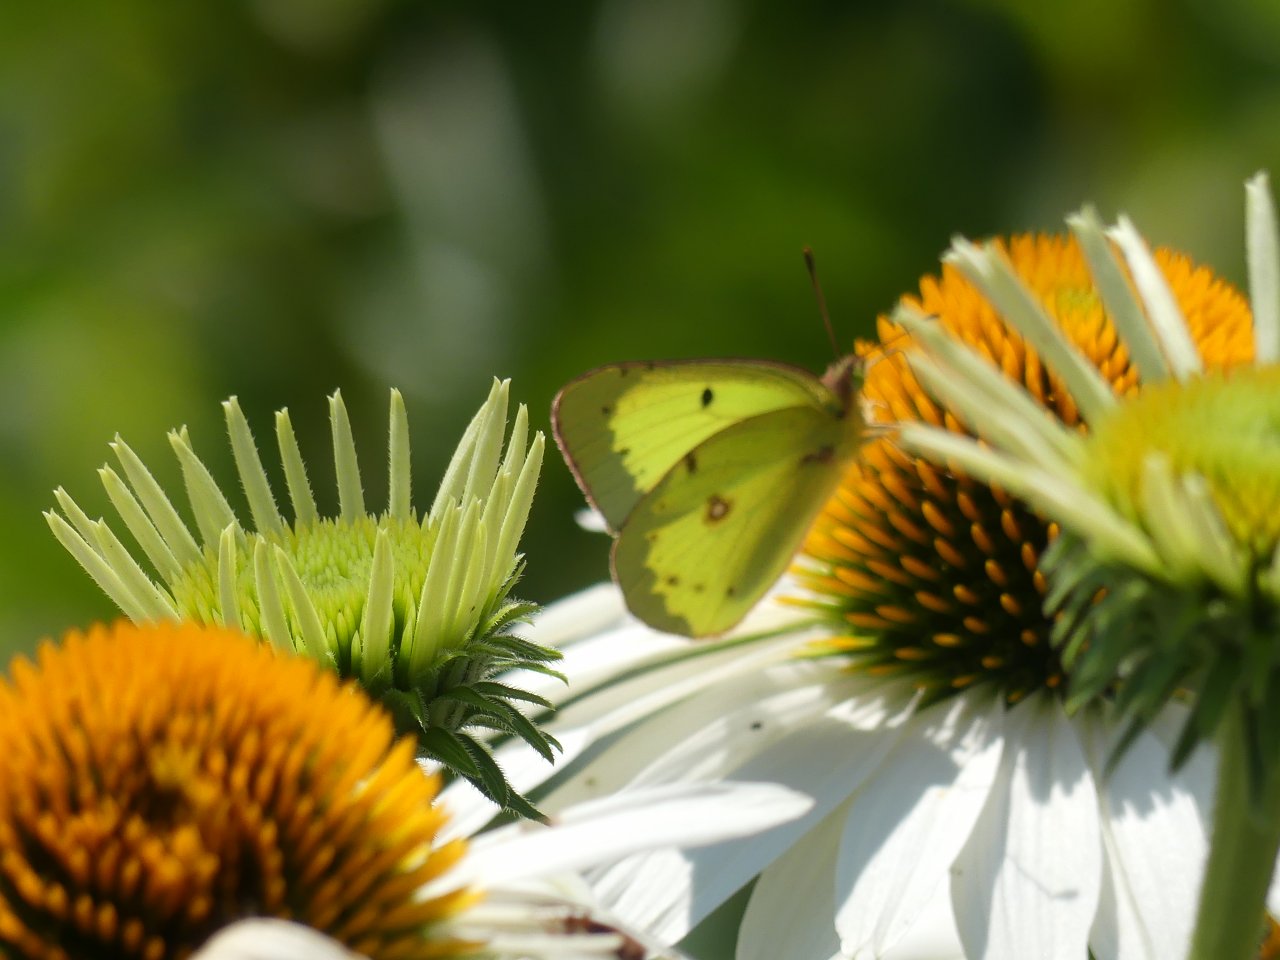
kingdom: Animalia
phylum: Arthropoda
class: Insecta
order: Lepidoptera
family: Pieridae
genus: Colias
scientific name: Colias
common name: Clouded Yellows
